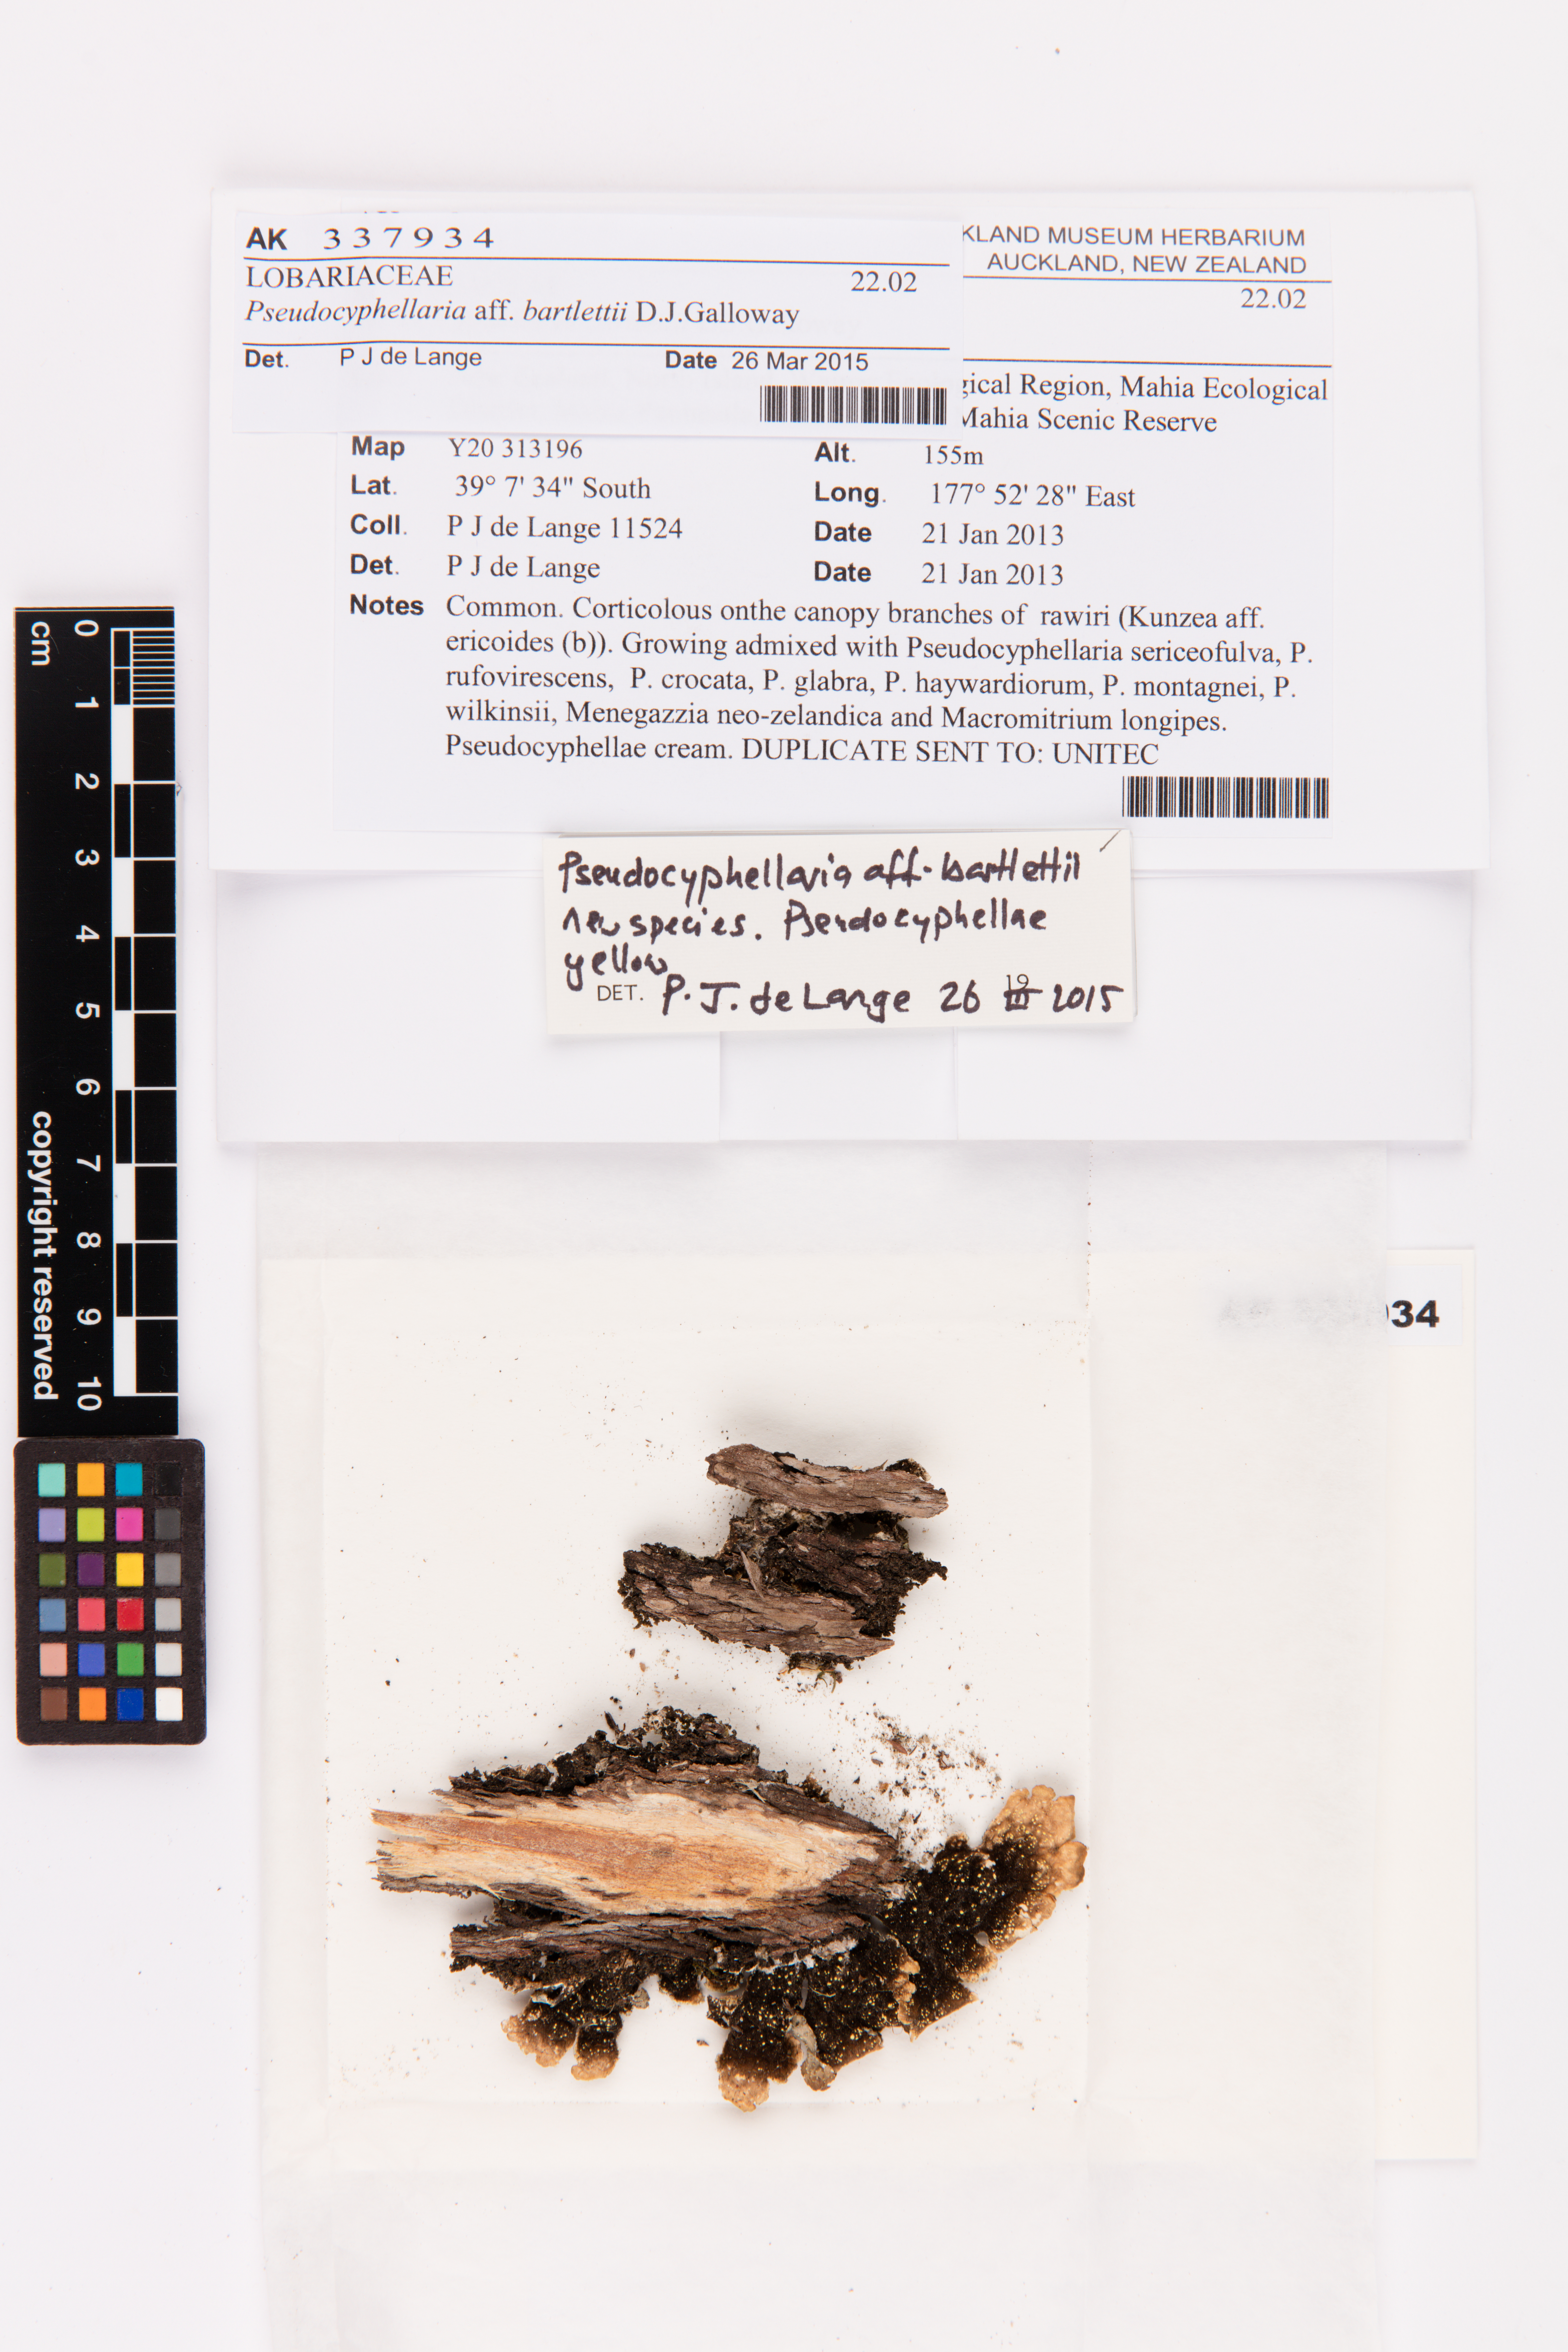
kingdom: Fungi
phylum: Ascomycota
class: Lecanoromycetes
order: Peltigerales
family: Lobariaceae
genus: Pseudocyphellaria
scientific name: Pseudocyphellaria bartlettii
